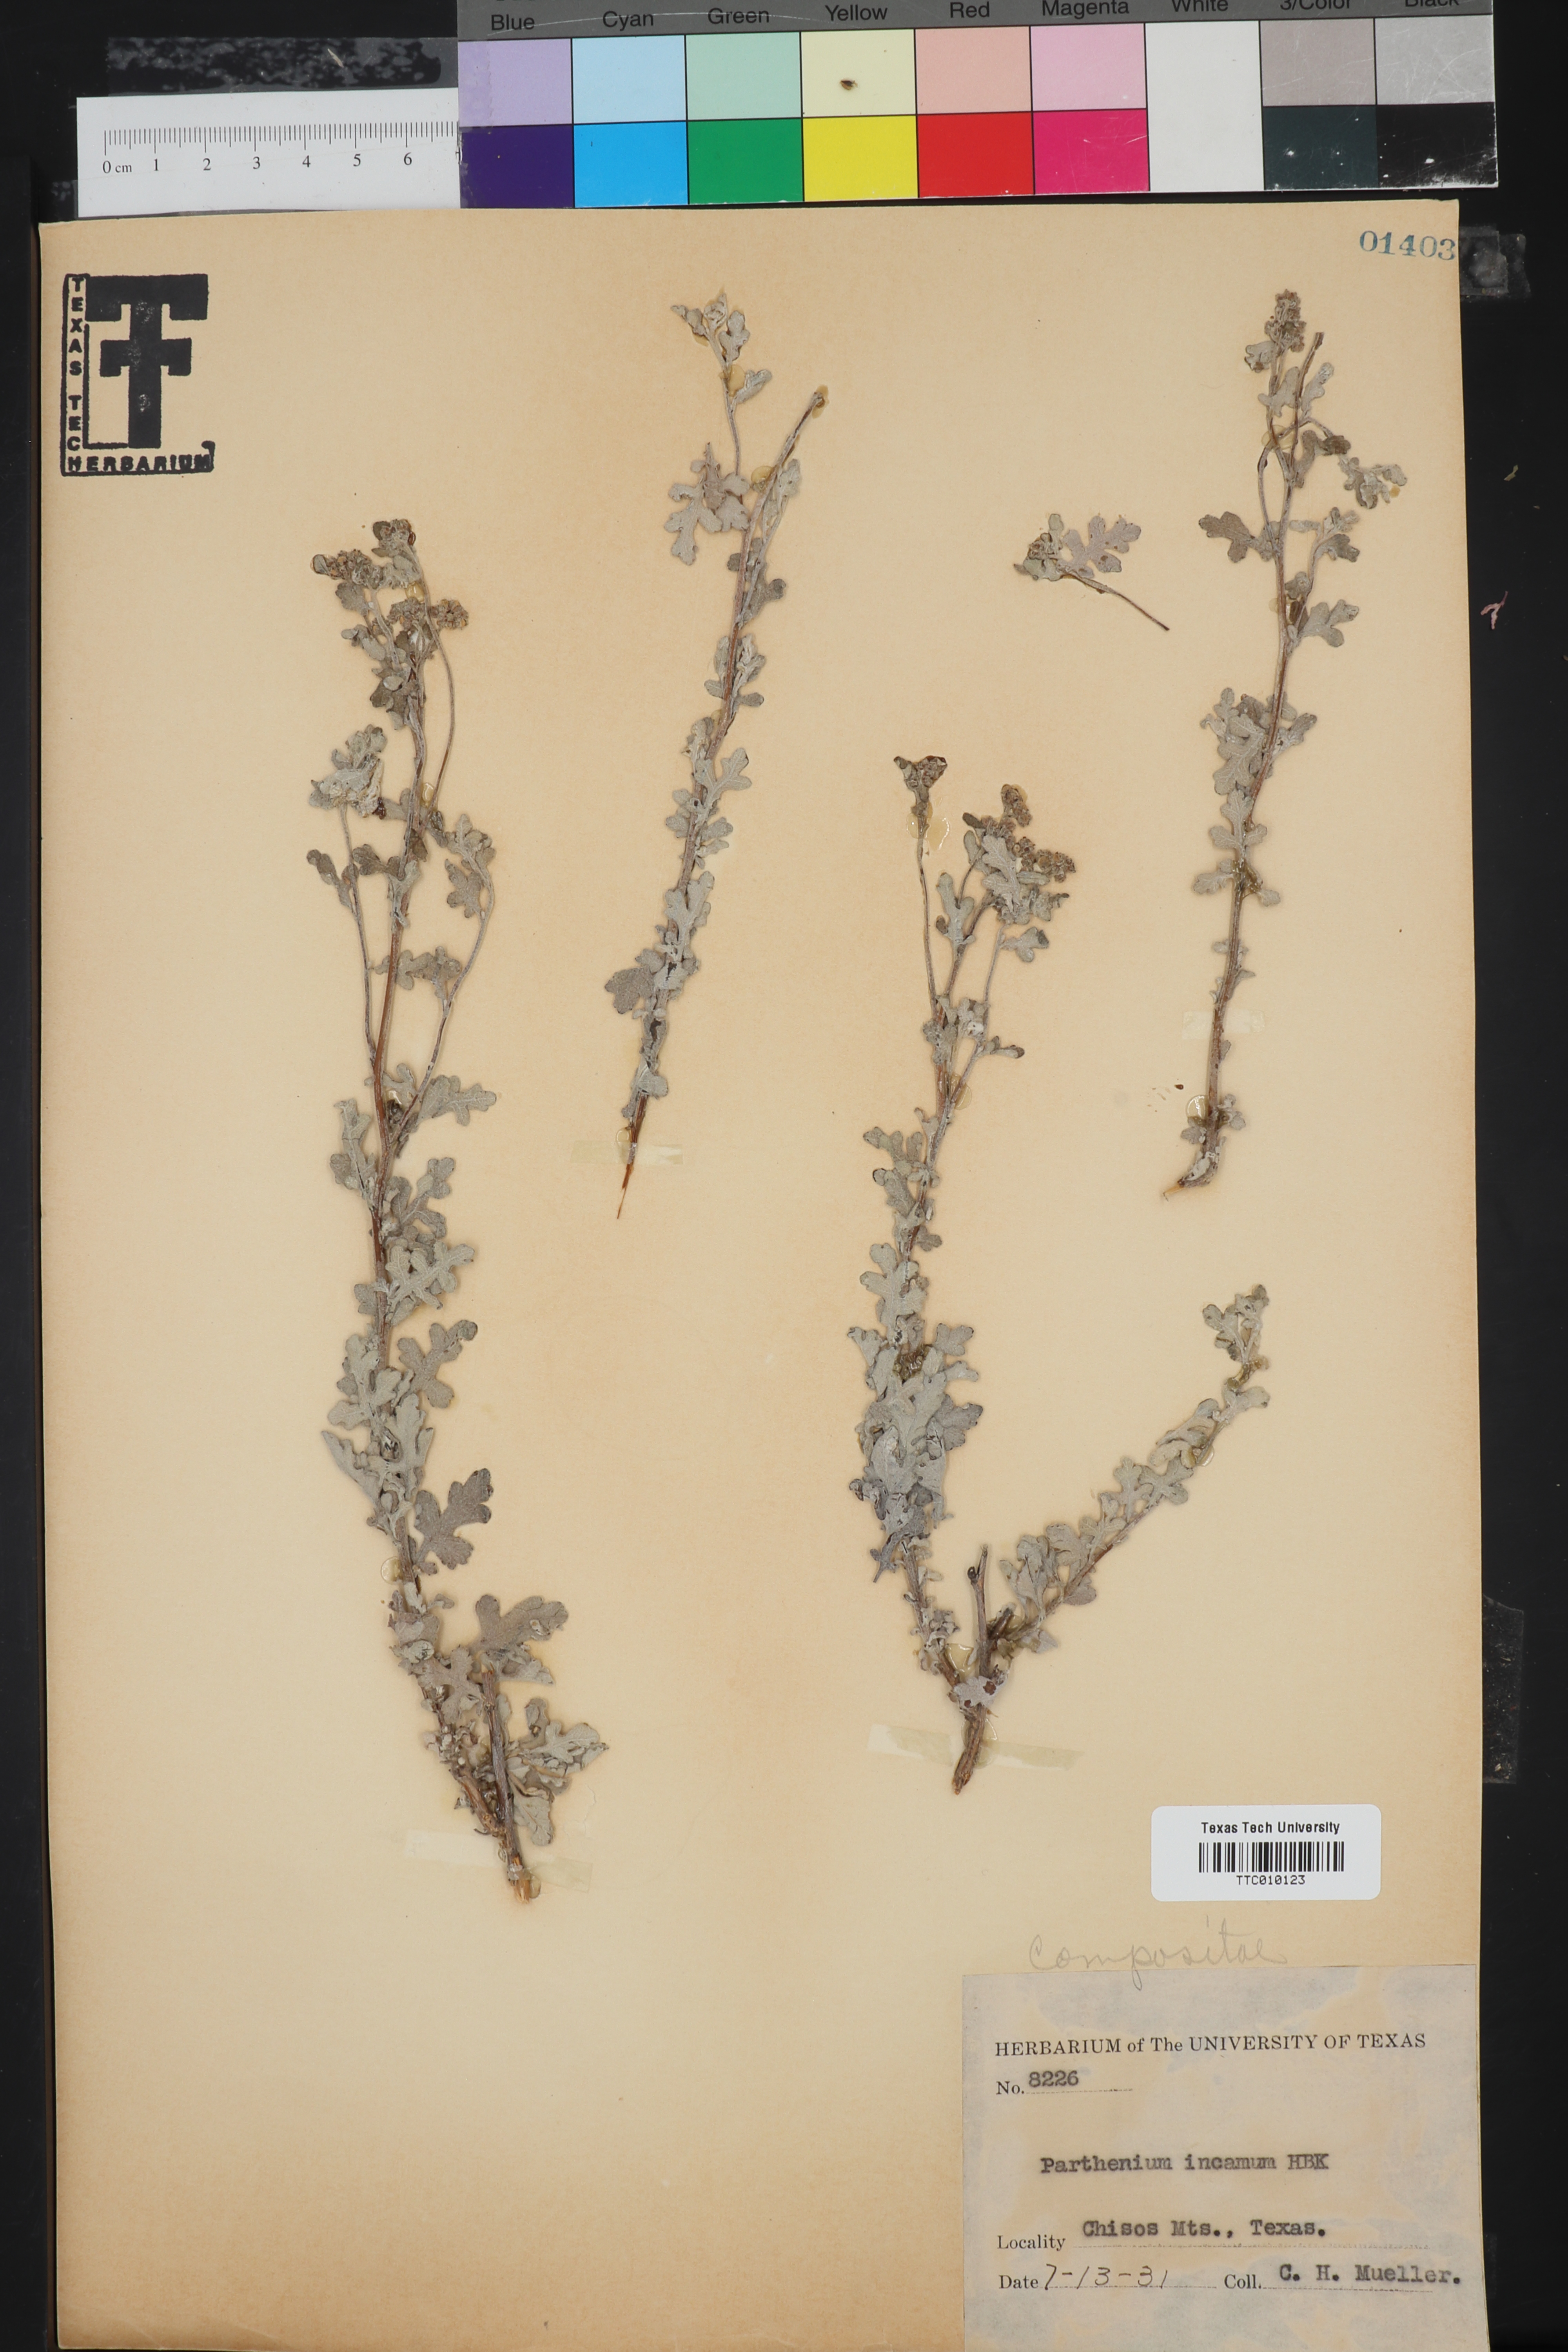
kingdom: Plantae
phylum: Tracheophyta
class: Magnoliopsida
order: Asterales
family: Asteraceae
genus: Parthenium
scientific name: Parthenium incanum
